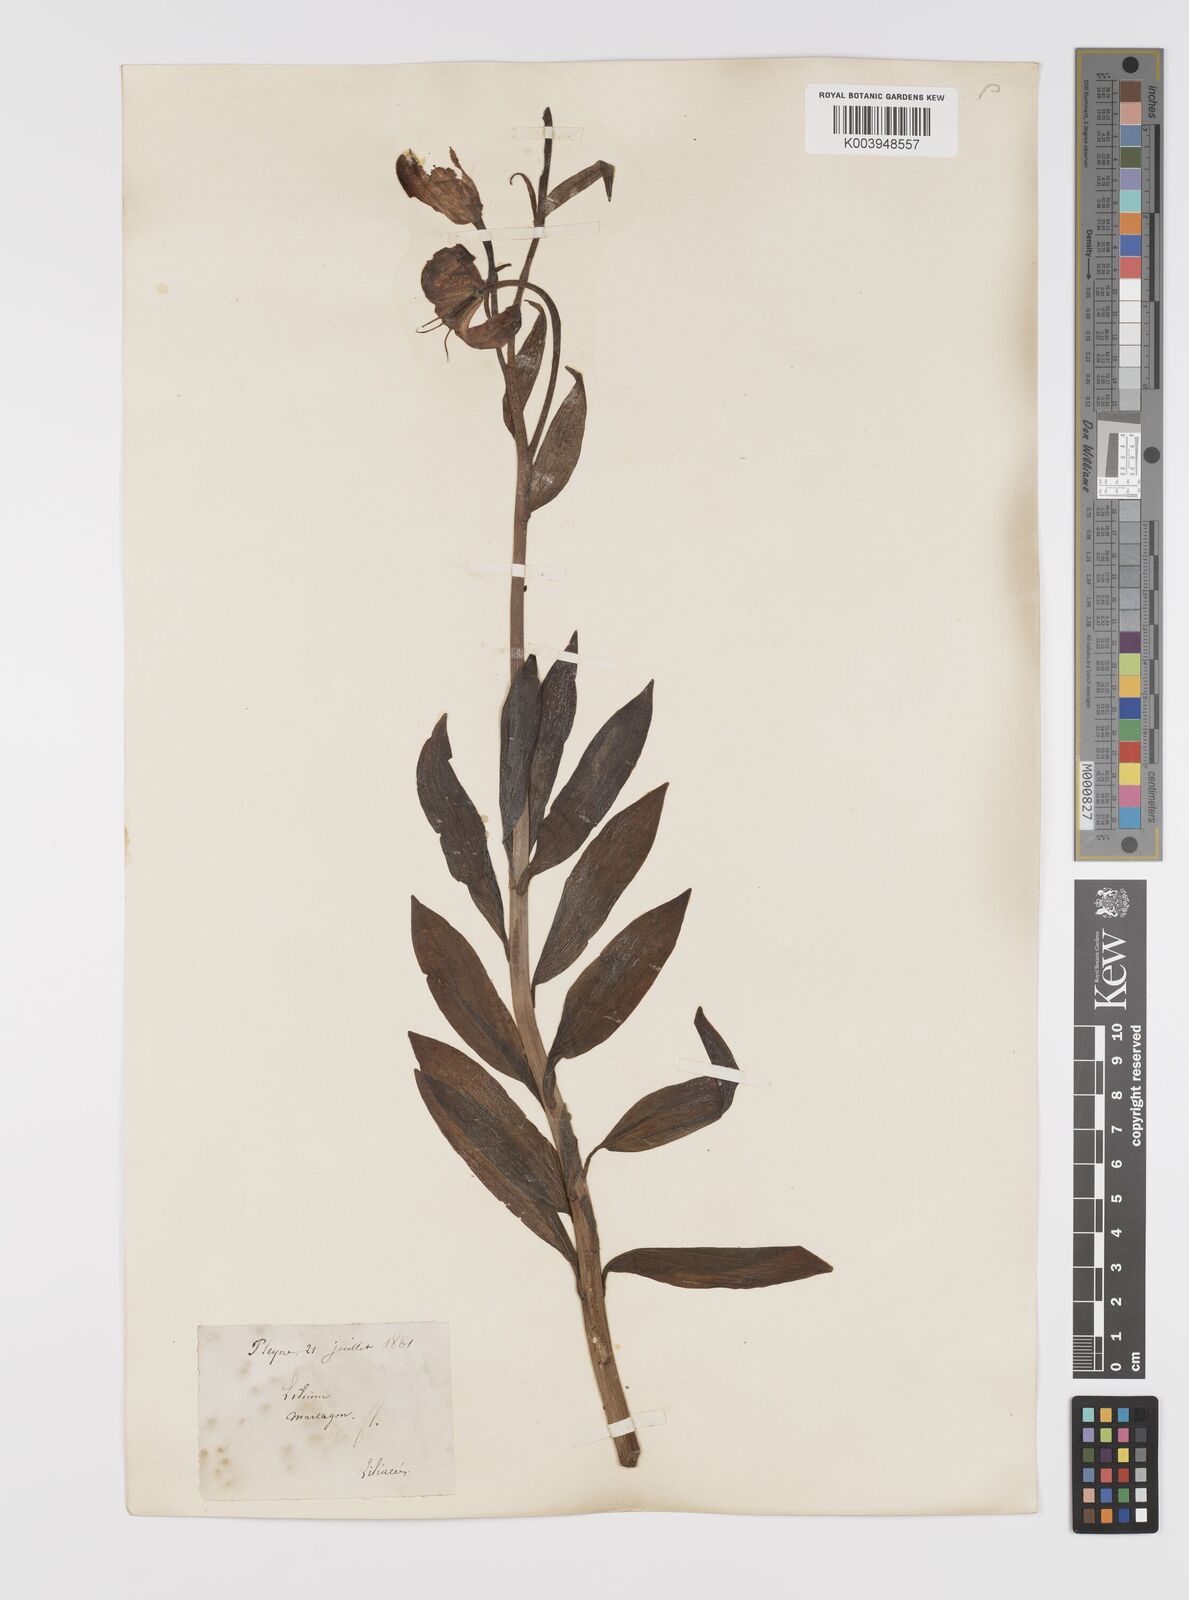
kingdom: Plantae
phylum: Tracheophyta
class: Liliopsida
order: Liliales
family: Liliaceae
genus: Lilium
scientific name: Lilium martagon
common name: Martagon lily
